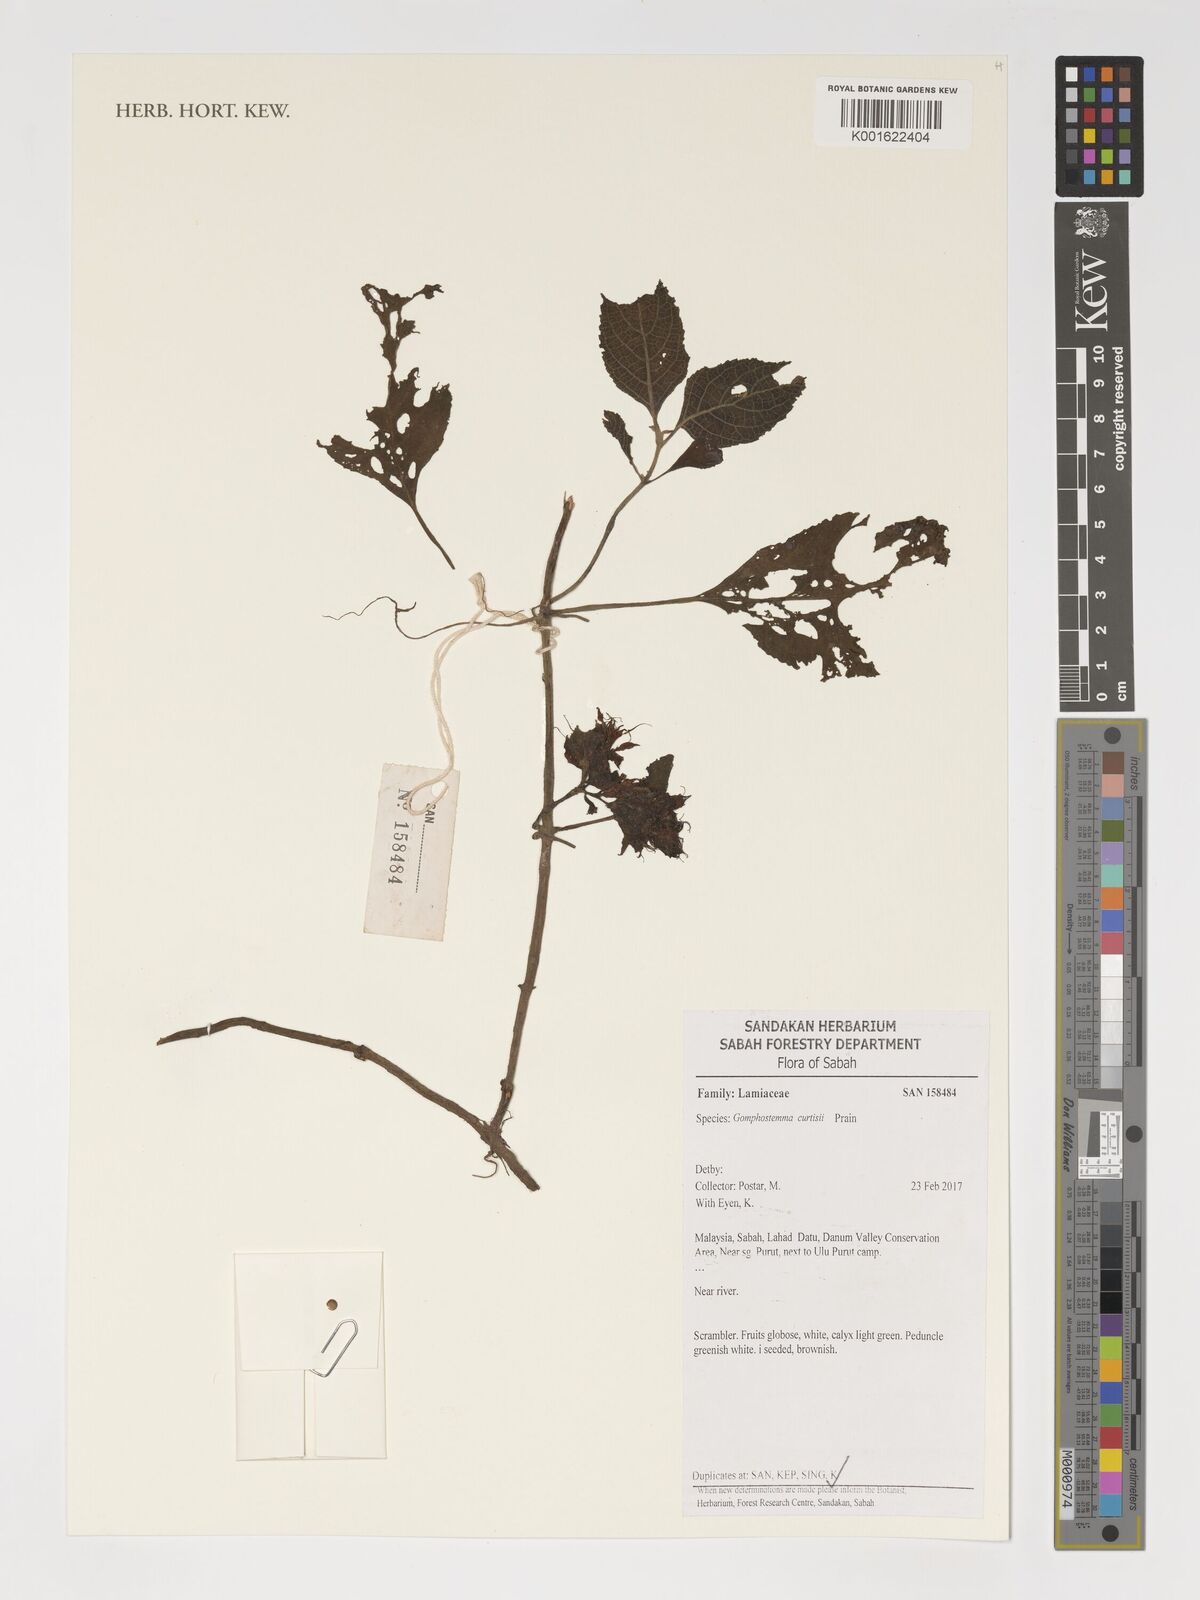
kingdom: Plantae
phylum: Tracheophyta
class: Magnoliopsida
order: Lamiales
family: Lamiaceae
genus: Gomphostemma
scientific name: Gomphostemma curtisii
